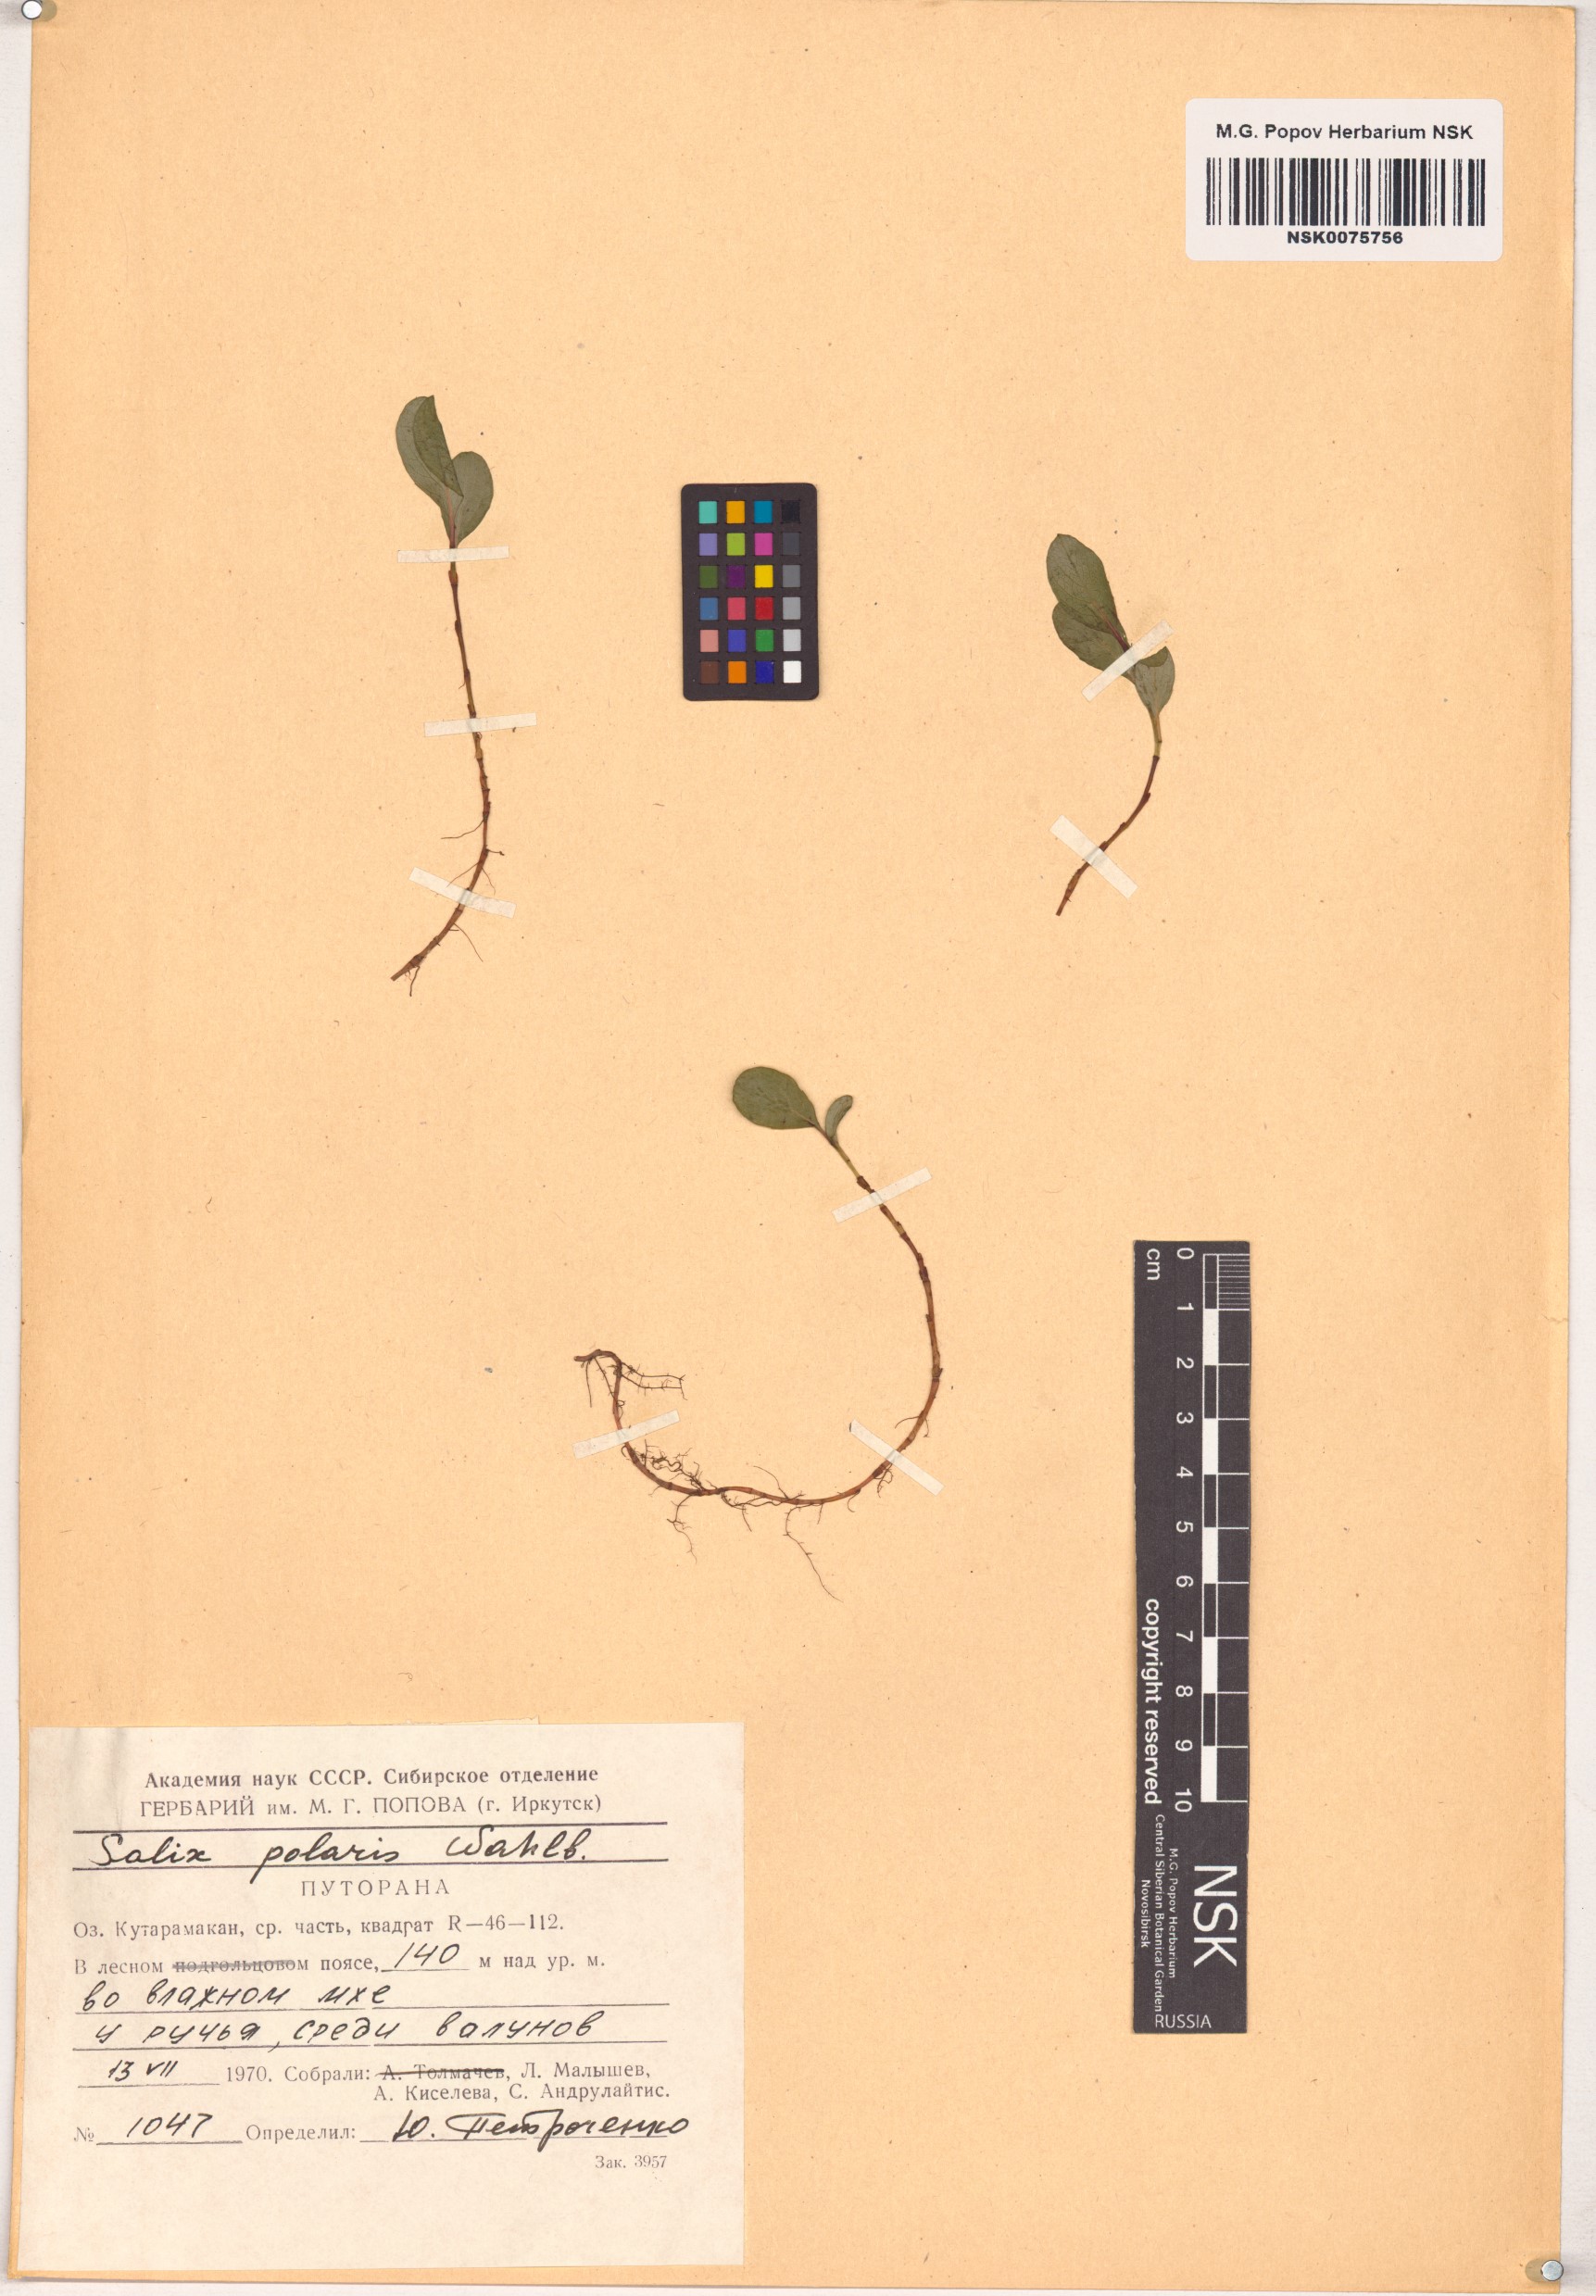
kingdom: Plantae
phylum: Tracheophyta
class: Magnoliopsida
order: Malpighiales
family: Salicaceae
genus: Salix
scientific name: Salix polaris
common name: Polar willow
